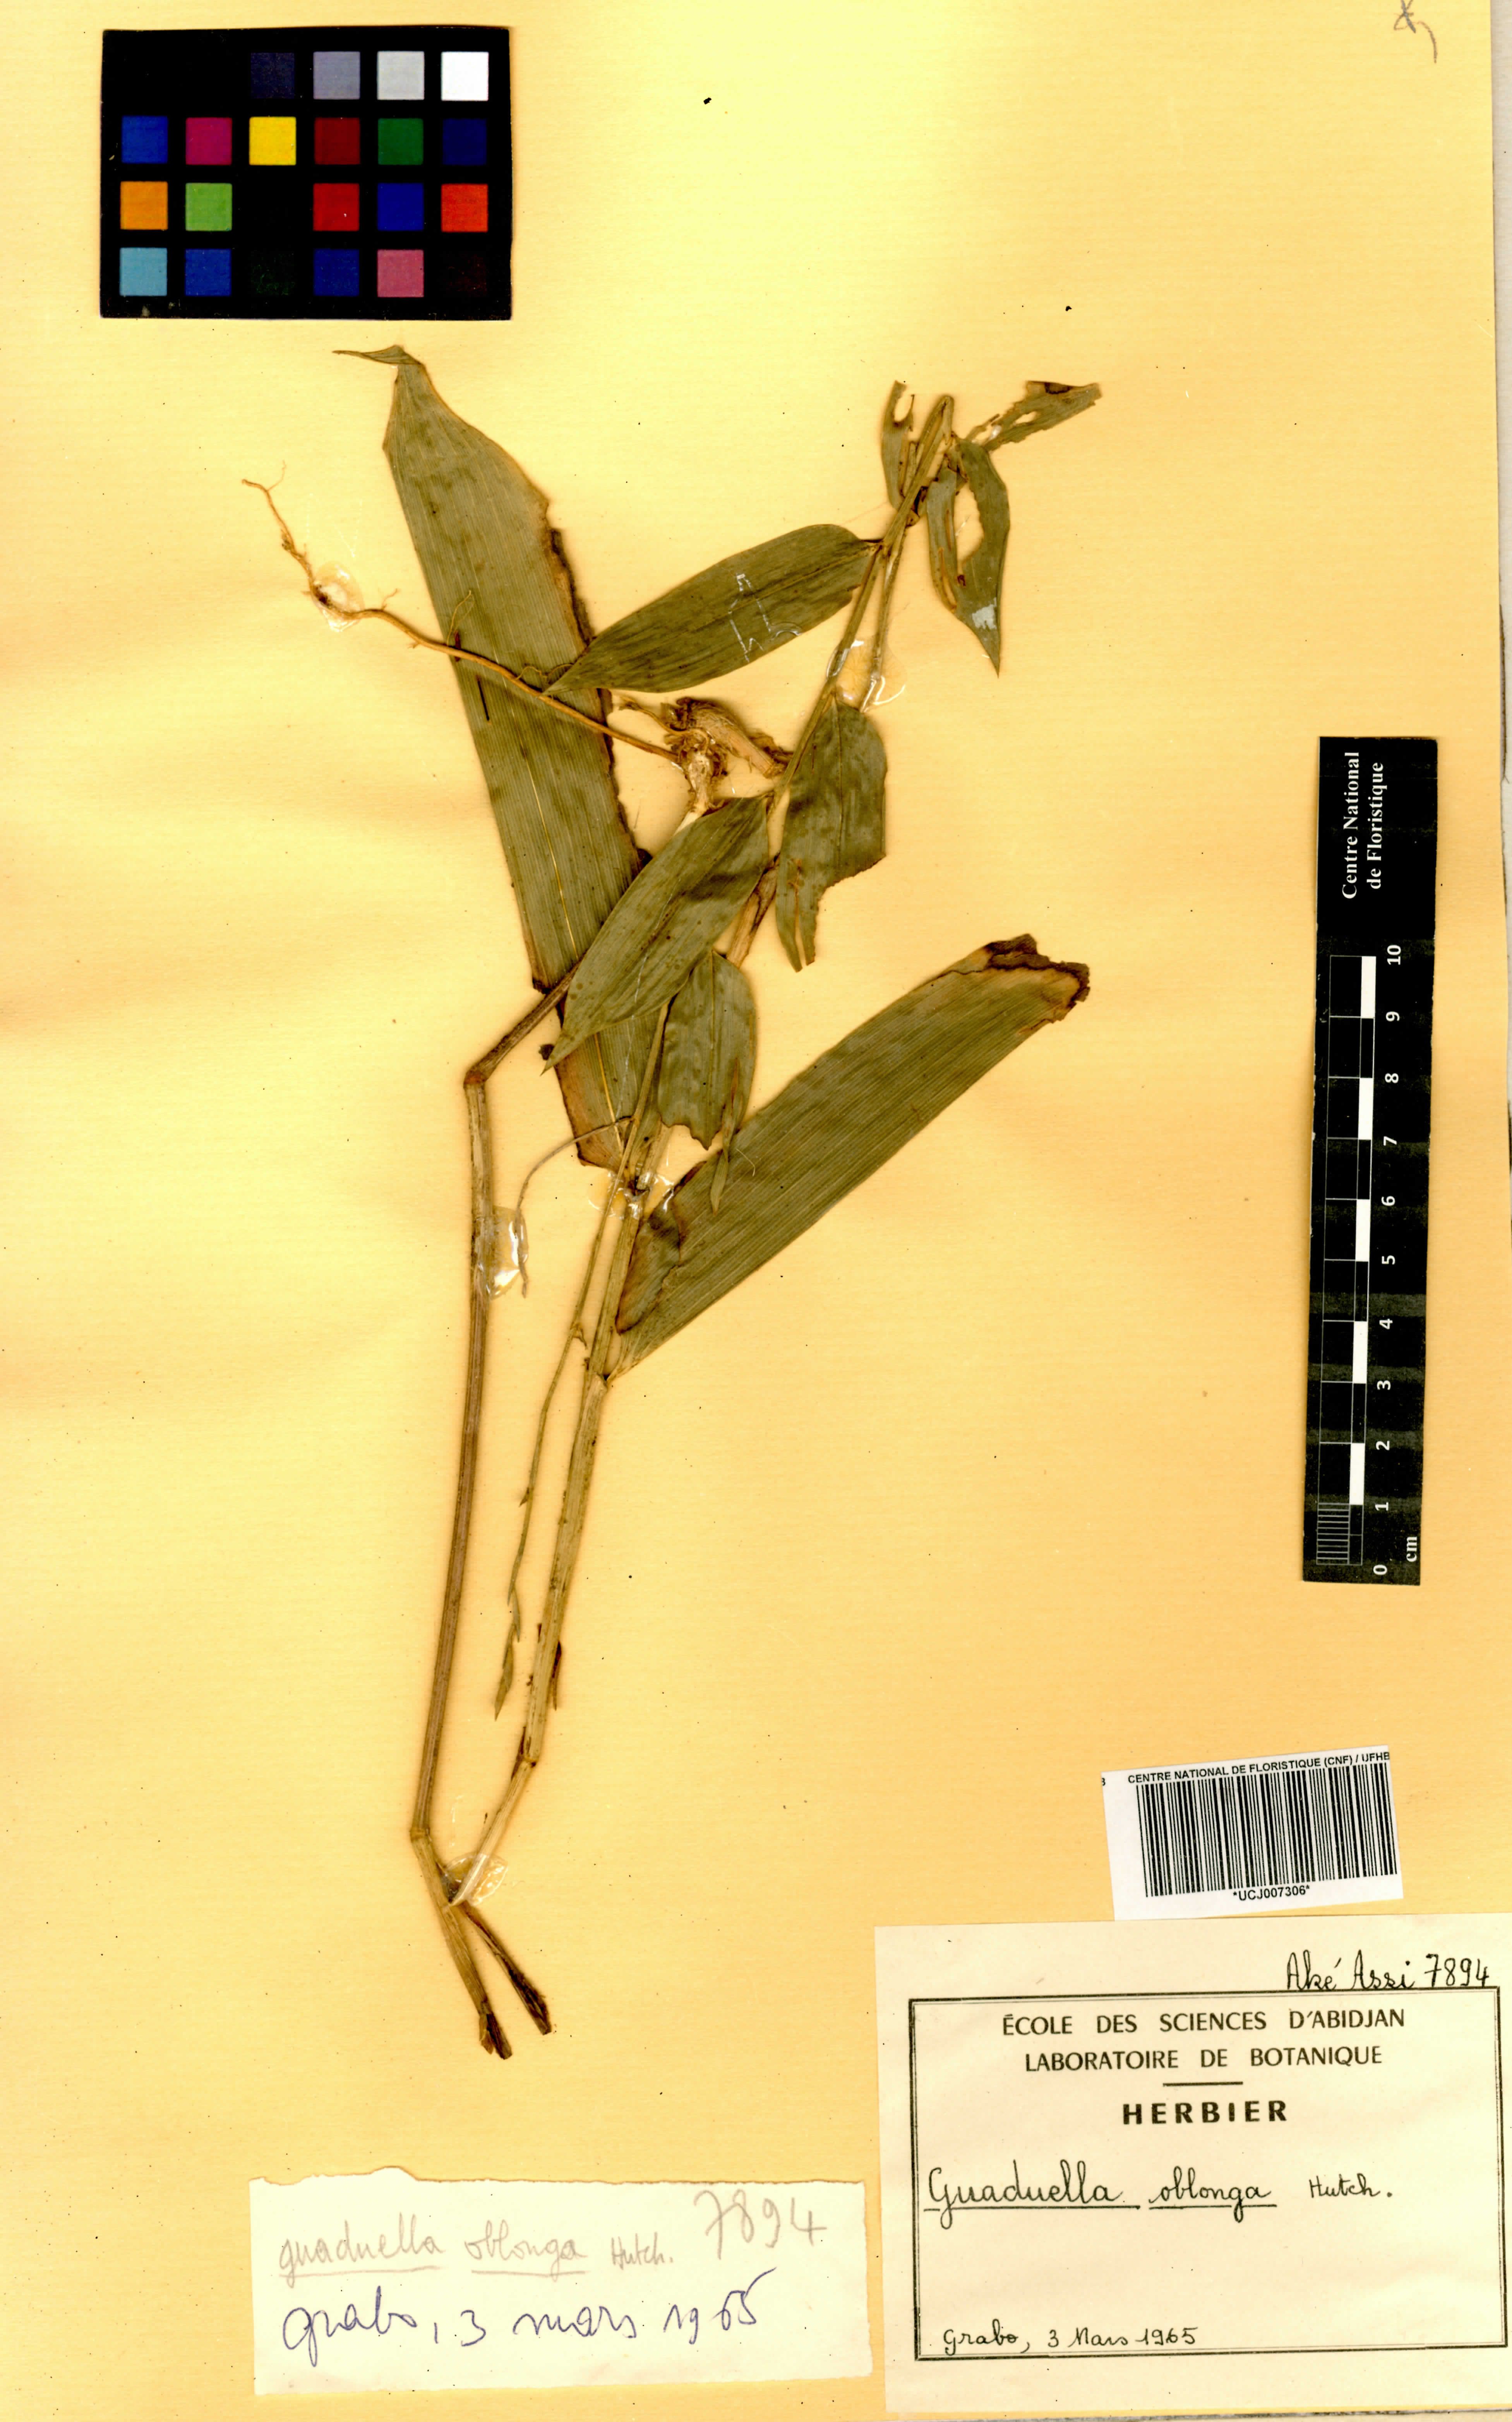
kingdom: Plantae
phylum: Tracheophyta
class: Liliopsida
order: Poales
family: Poaceae
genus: Guaduella
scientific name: Guaduella oblonga
